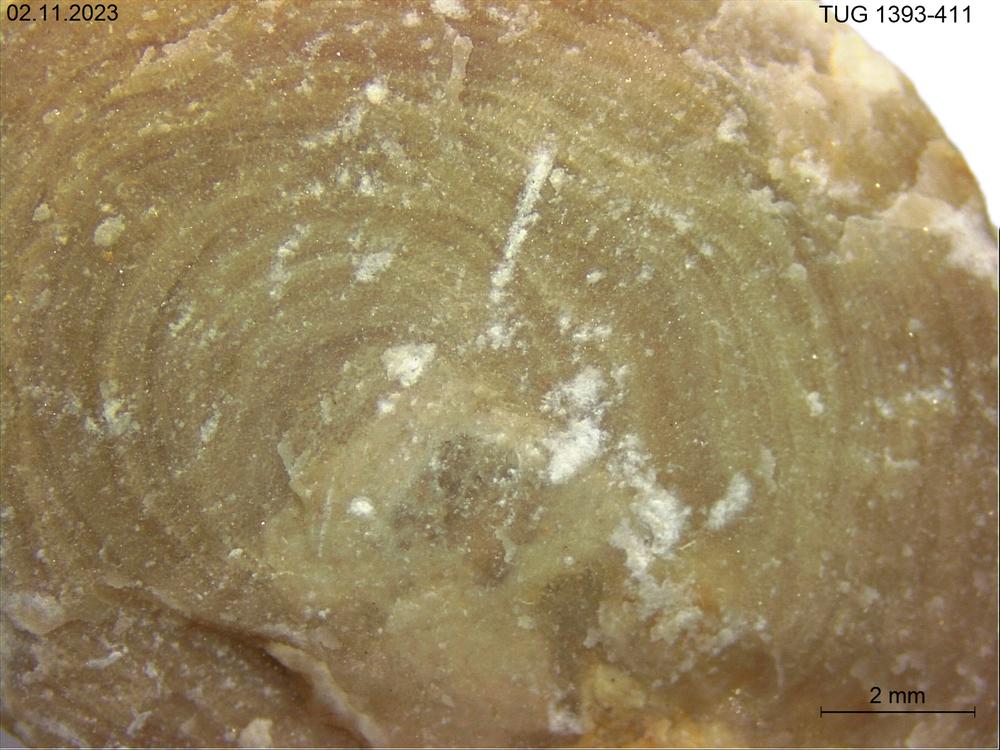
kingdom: Animalia
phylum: Porifera
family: Chaetetidae
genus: Solenopora
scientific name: Solenopora
